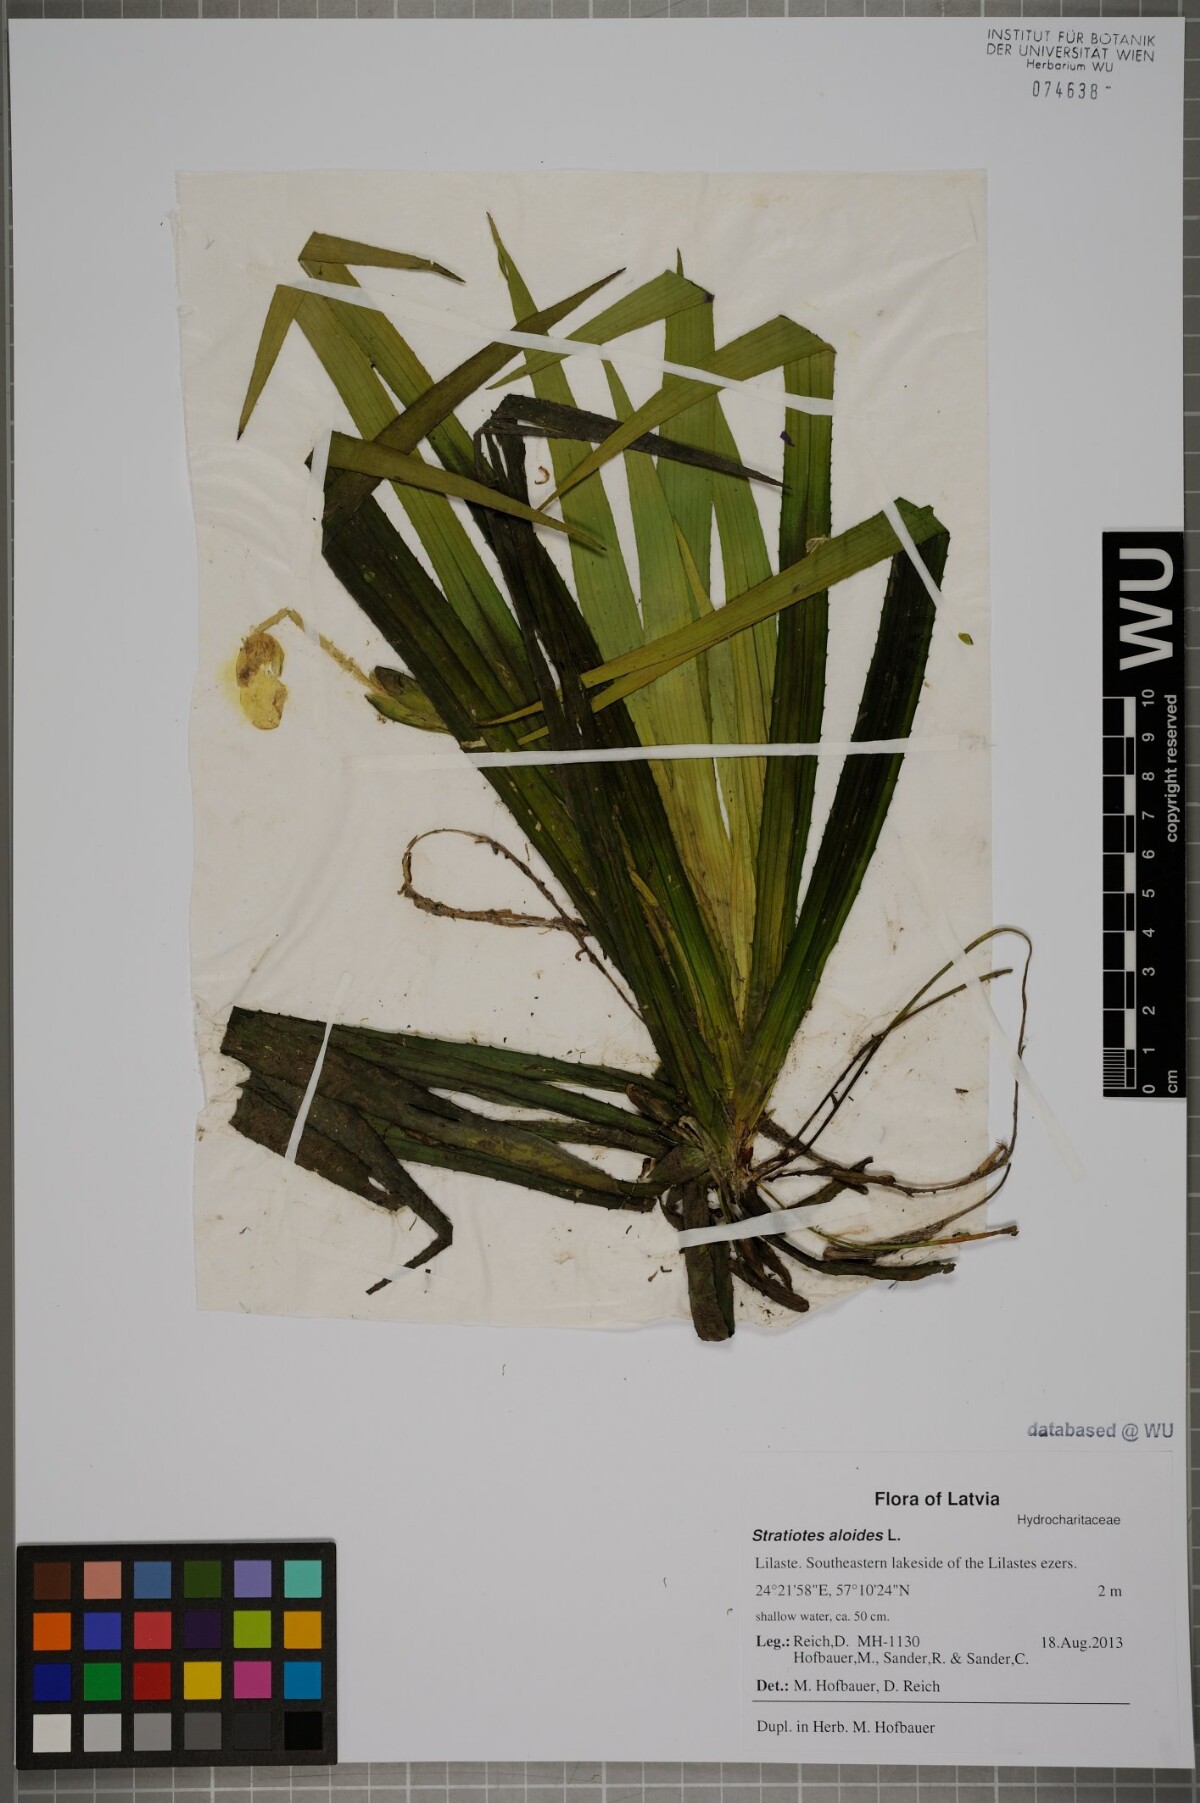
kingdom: Plantae
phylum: Tracheophyta
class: Liliopsida
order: Alismatales
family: Hydrocharitaceae
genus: Stratiotes
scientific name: Stratiotes aloides
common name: Water-soldier
